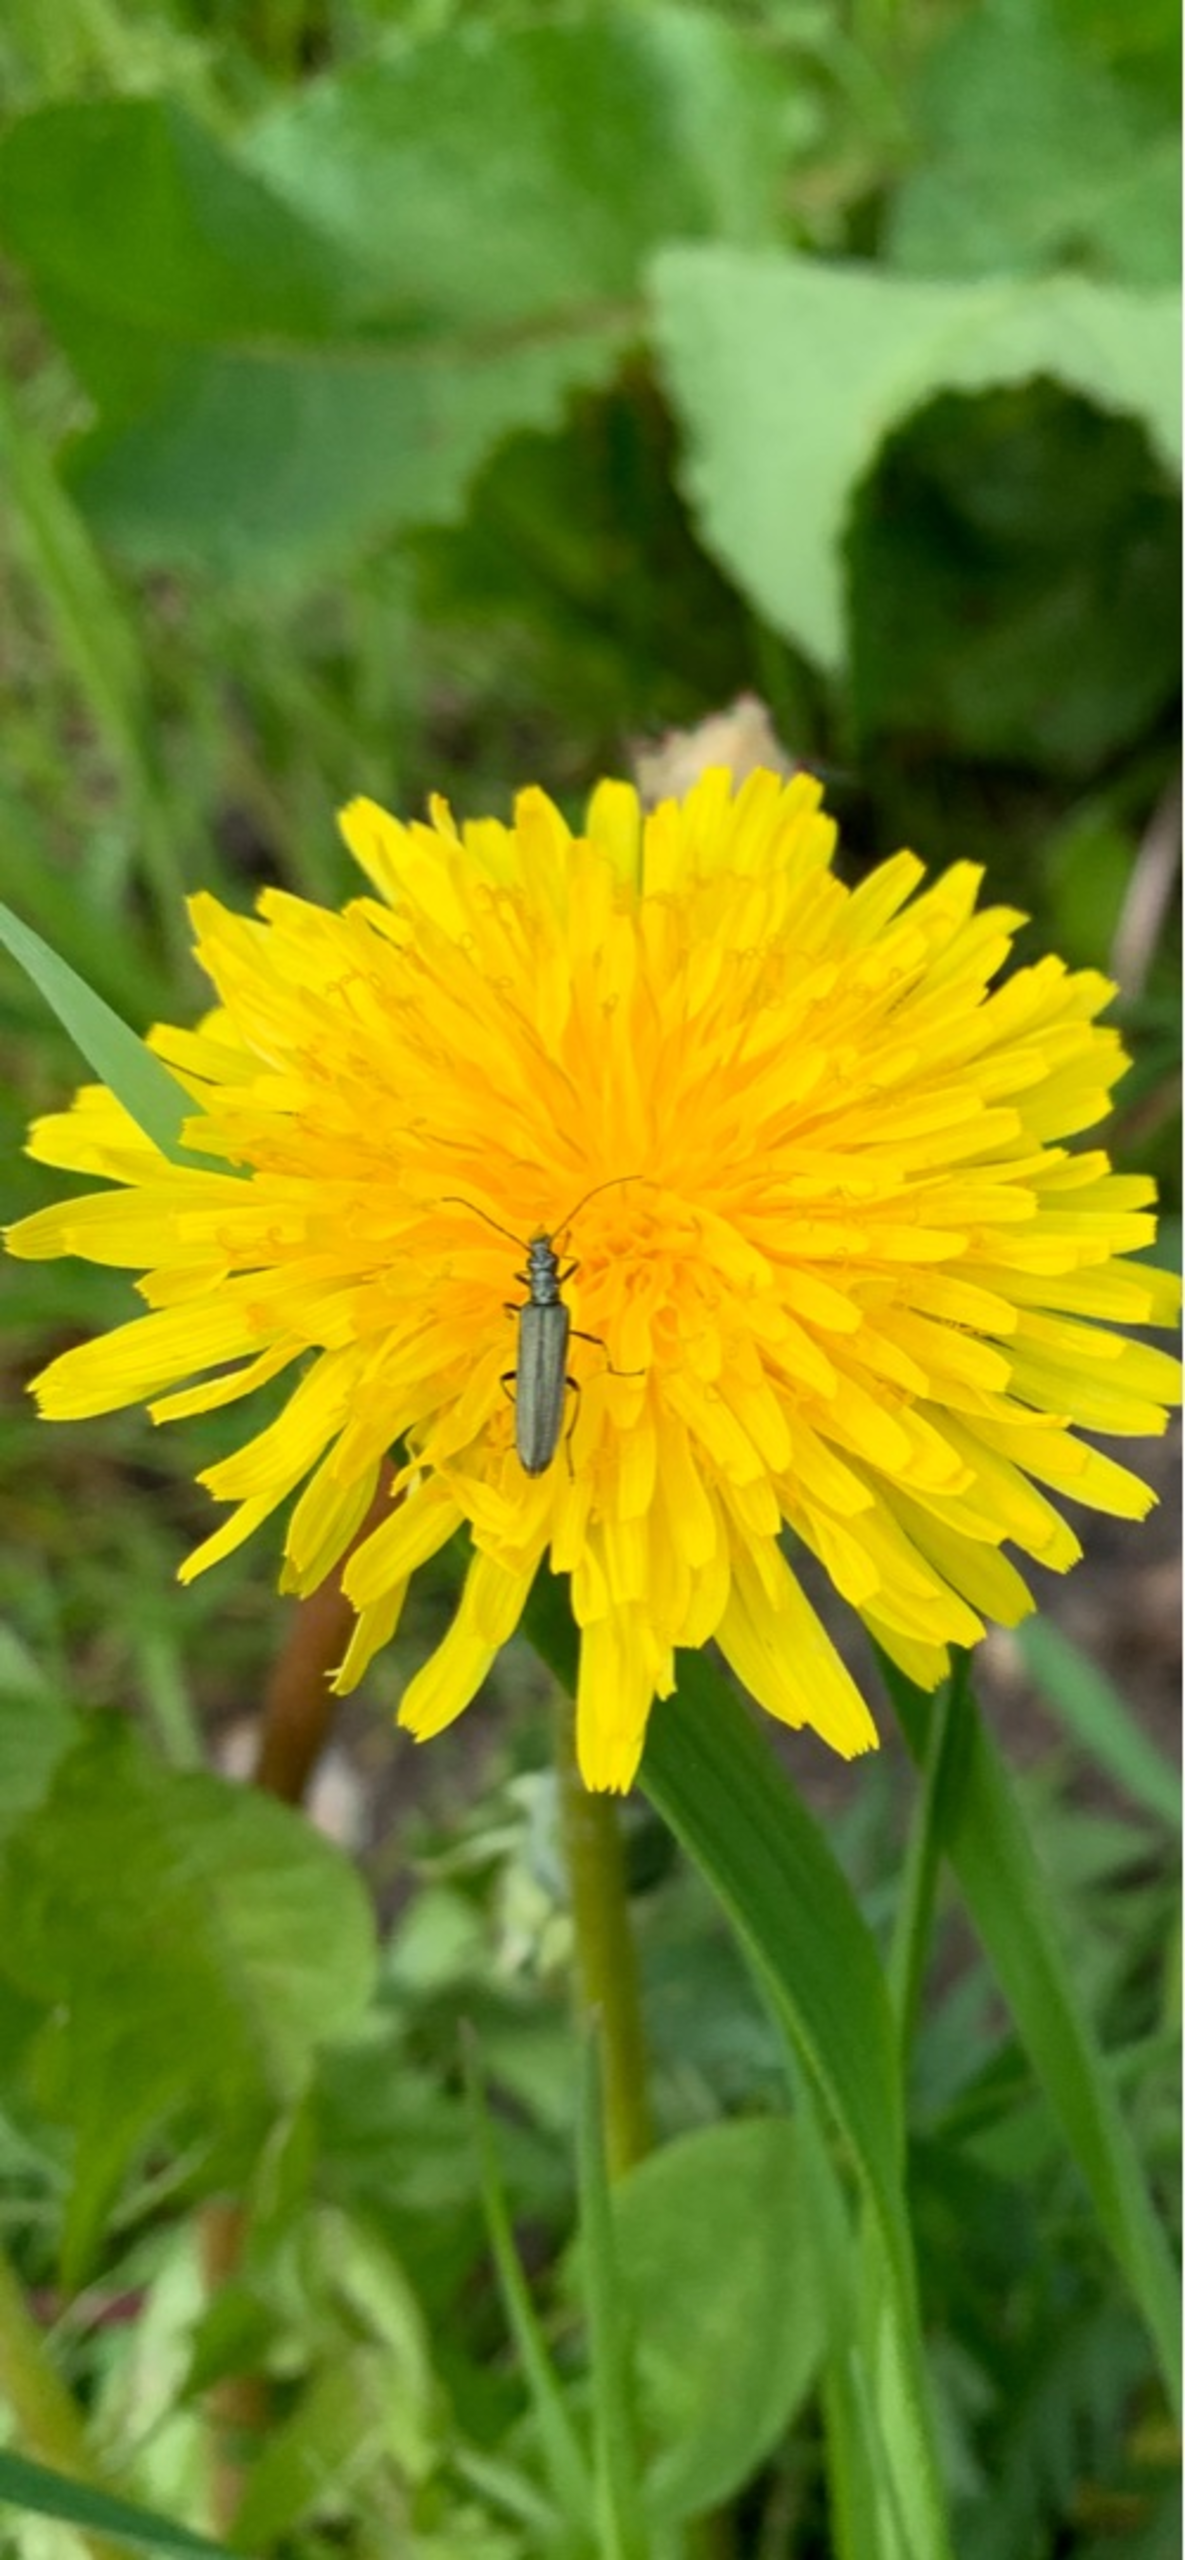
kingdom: Animalia
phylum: Arthropoda
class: Insecta
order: Coleoptera
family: Oedemeridae
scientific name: Oedemeridae
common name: Solbiller
